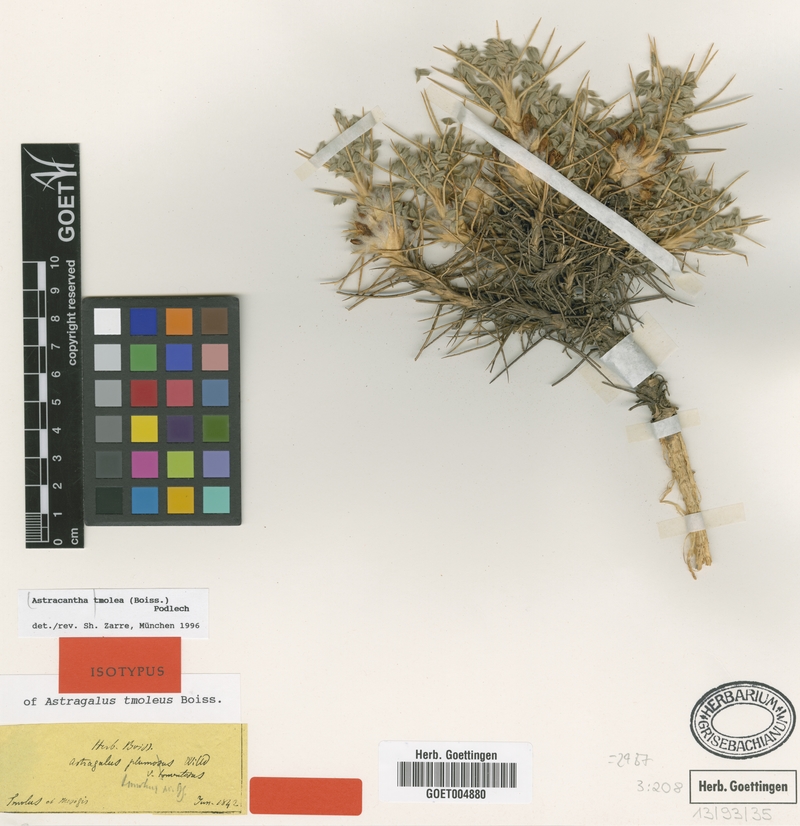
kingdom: Plantae
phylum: Tracheophyta
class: Magnoliopsida
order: Fabales
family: Fabaceae
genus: Astragalus
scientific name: Astragalus tmoleus
